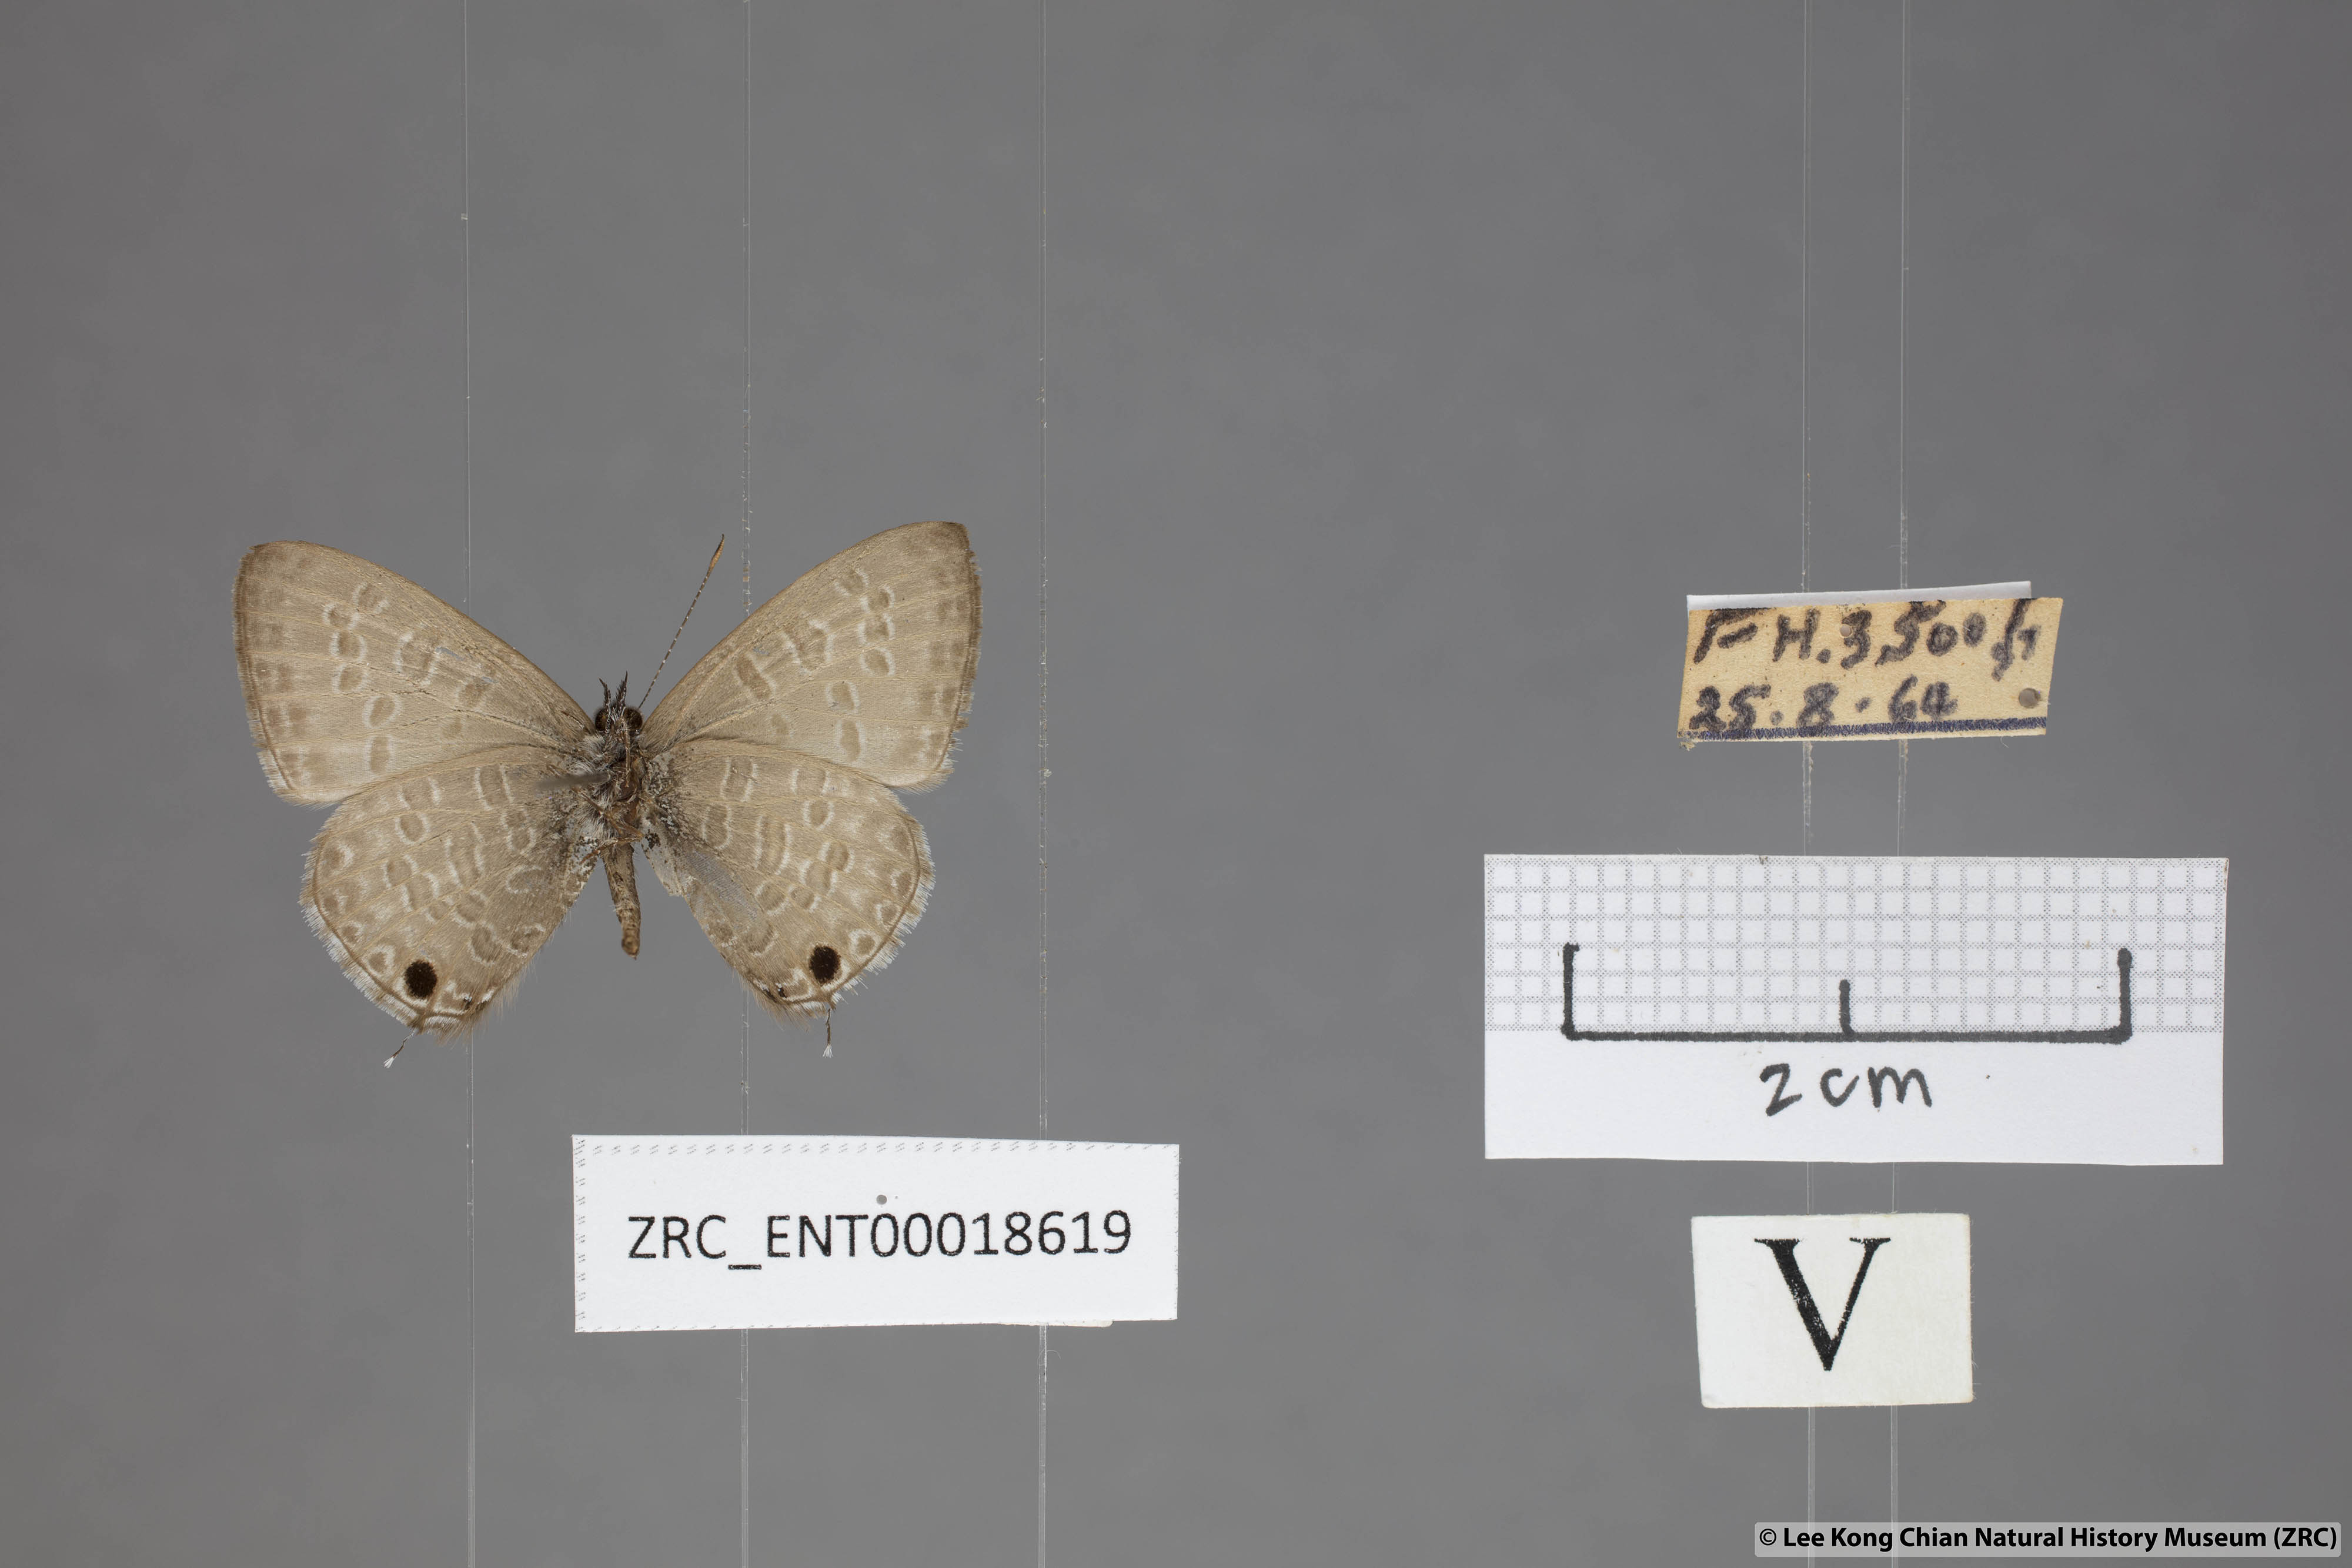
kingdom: Animalia
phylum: Arthropoda
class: Insecta
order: Lepidoptera
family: Lycaenidae
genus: Prosotas
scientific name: Prosotas nelides
